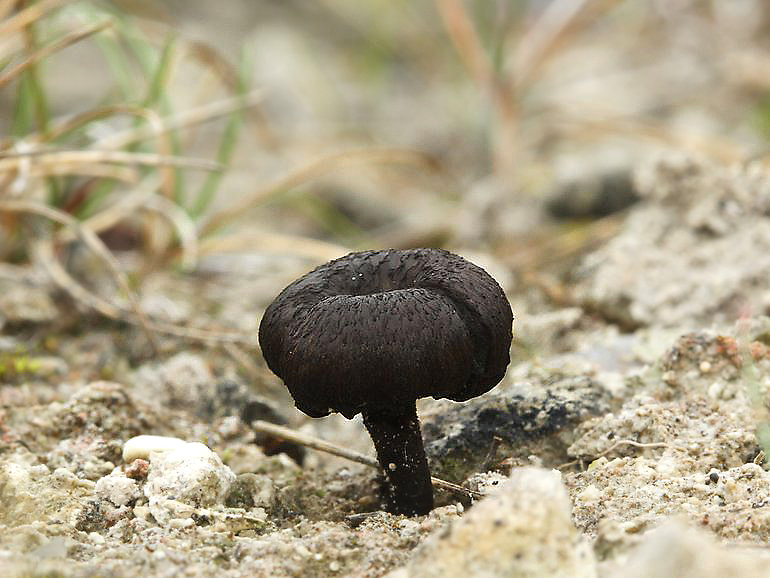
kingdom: Fungi
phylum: Basidiomycota
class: Agaricomycetes
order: Agaricales
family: Tricholomataceae
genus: Melanomphalia
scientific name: Melanomphalia nigrescens
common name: sørgehat
